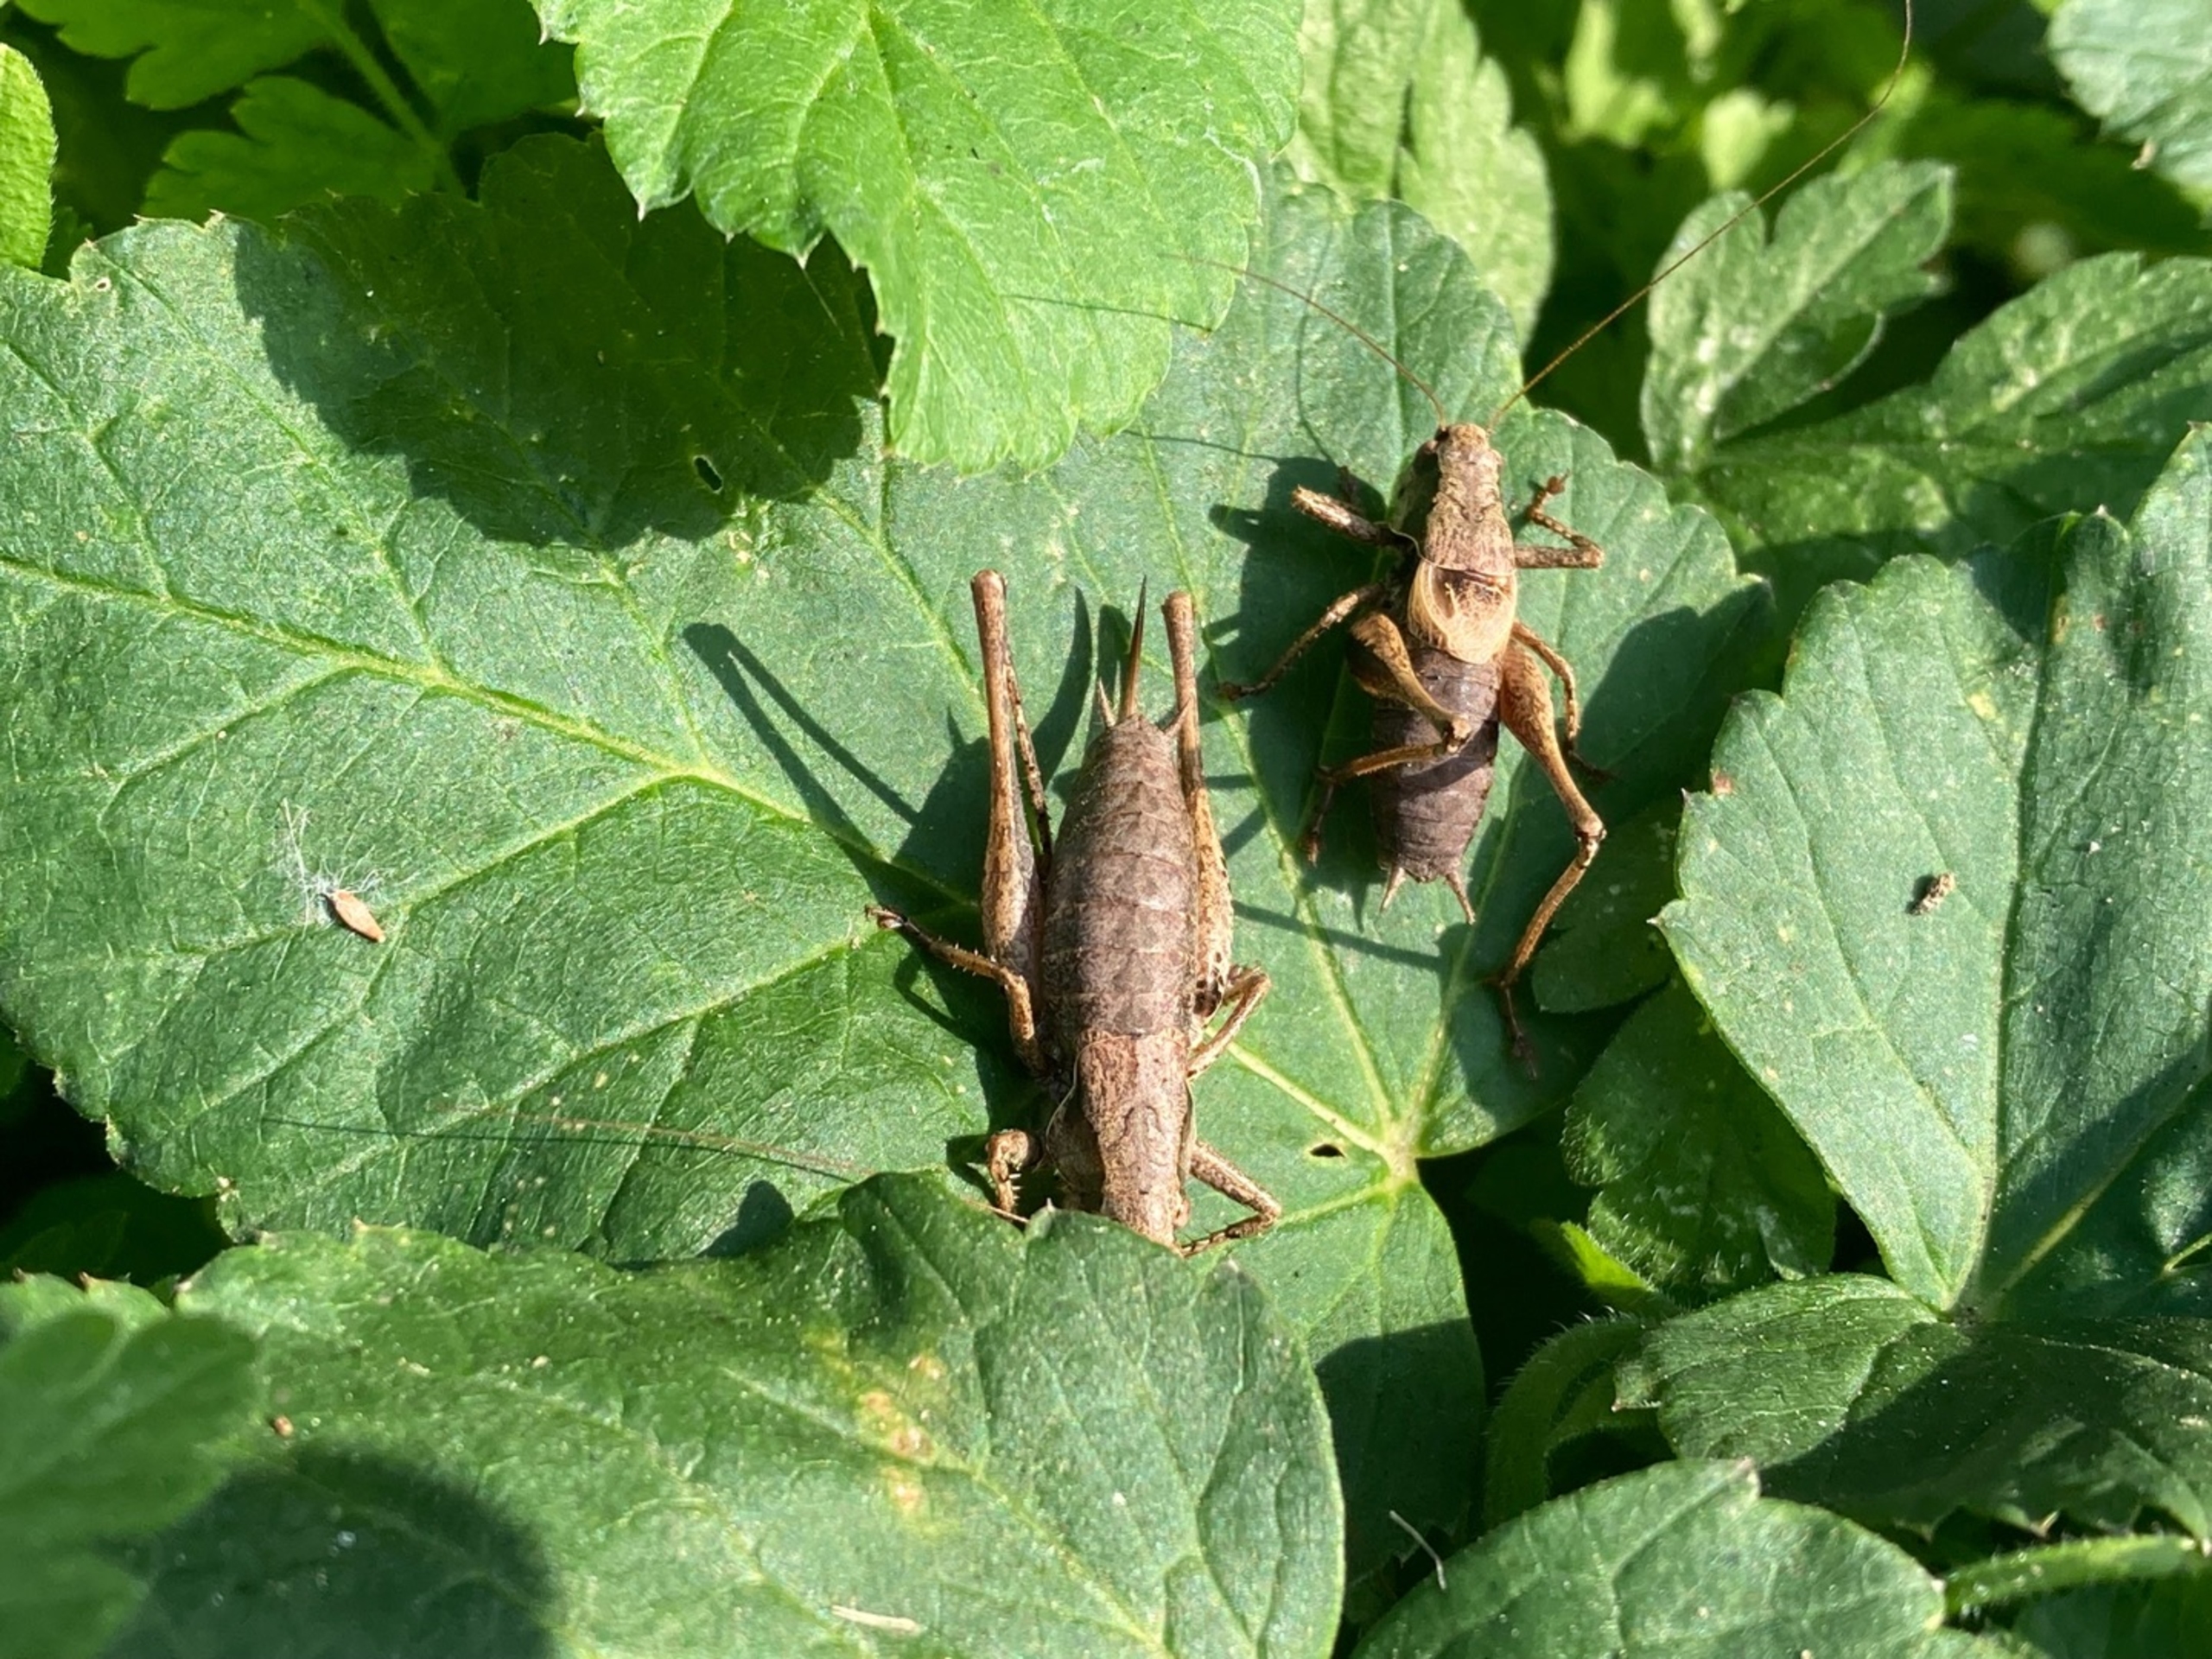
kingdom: Animalia
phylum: Arthropoda
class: Insecta
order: Orthoptera
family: Tettigoniidae
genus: Pholidoptera
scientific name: Pholidoptera griseoaptera
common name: Buskgræshoppe
